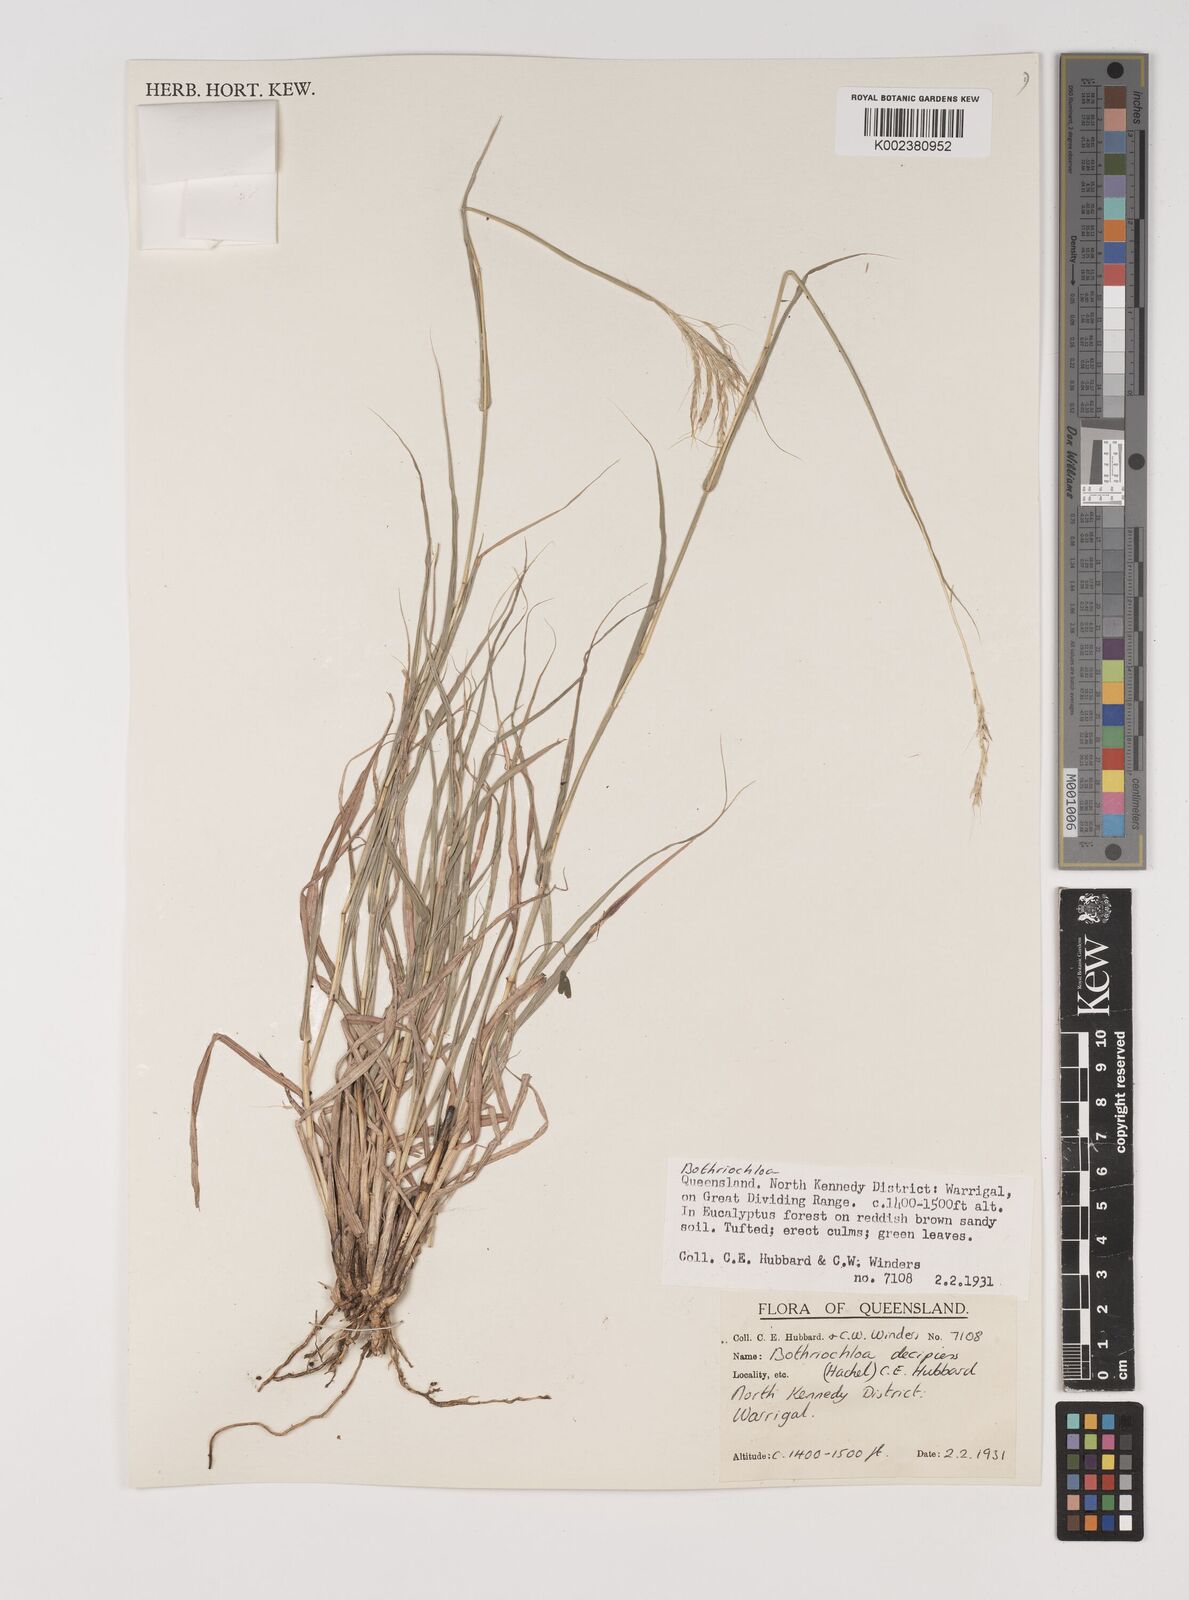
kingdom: Plantae
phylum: Tracheophyta
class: Liliopsida
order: Poales
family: Poaceae
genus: Bothriochloa
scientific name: Bothriochloa decipiens
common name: Pitted-bluegrass
